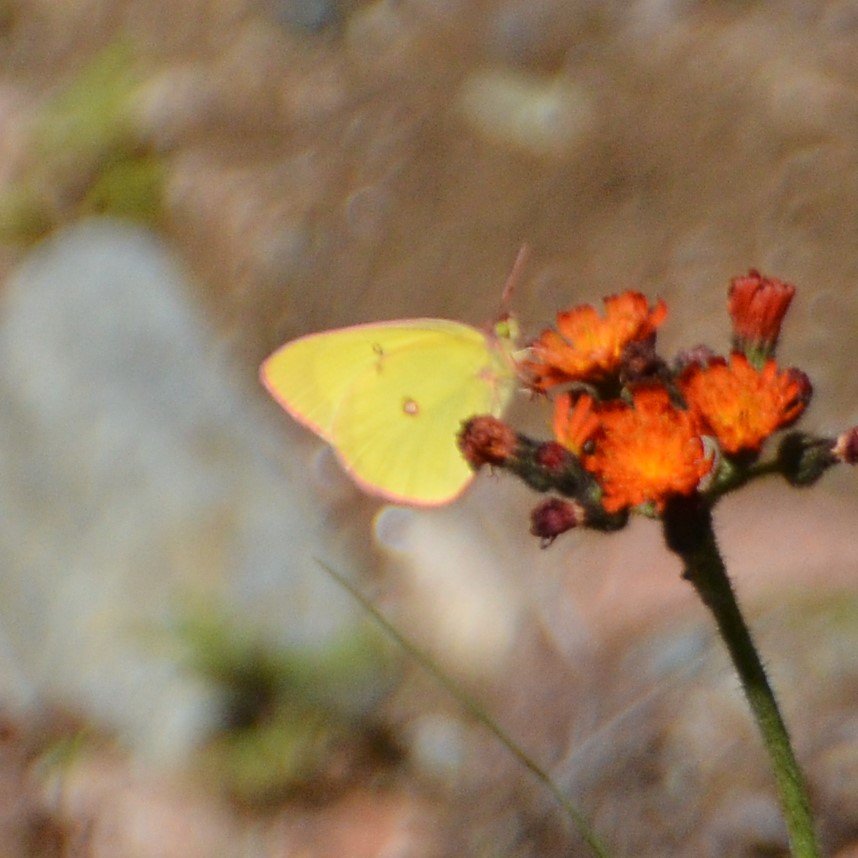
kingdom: Animalia
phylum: Arthropoda
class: Insecta
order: Lepidoptera
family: Pieridae
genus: Colias
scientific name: Colias interior
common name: Pink-edged Sulphur
